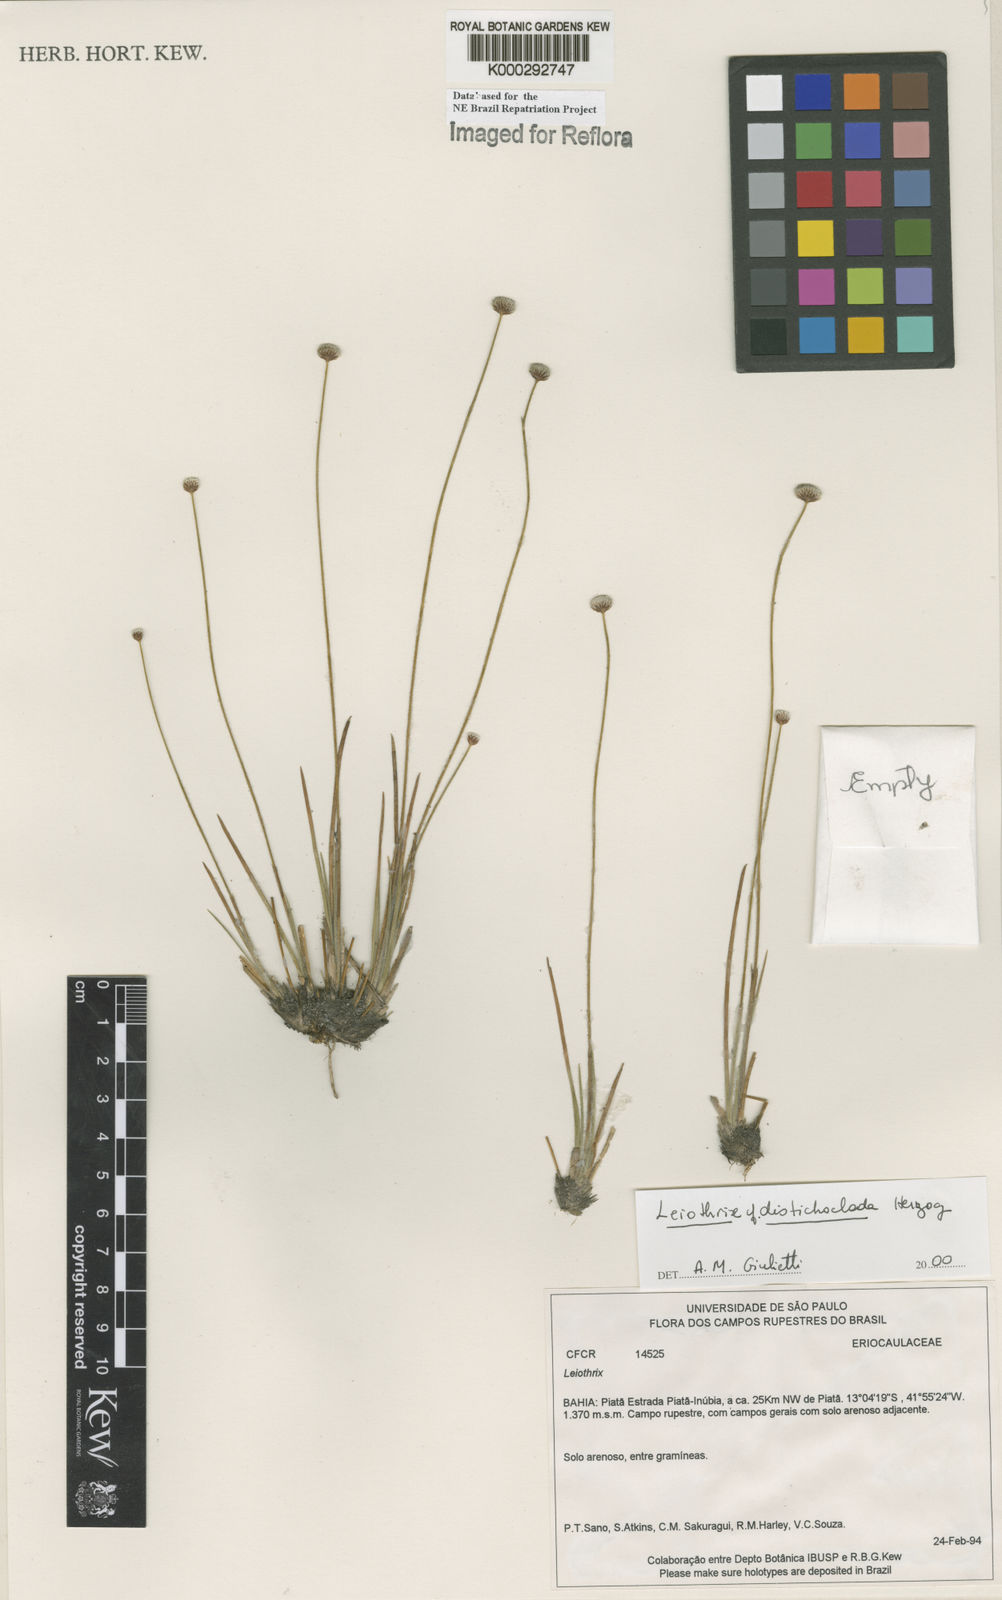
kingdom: Plantae
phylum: Tracheophyta
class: Liliopsida
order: Poales
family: Eriocaulaceae
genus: Leiothrix
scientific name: Leiothrix distichoclada
